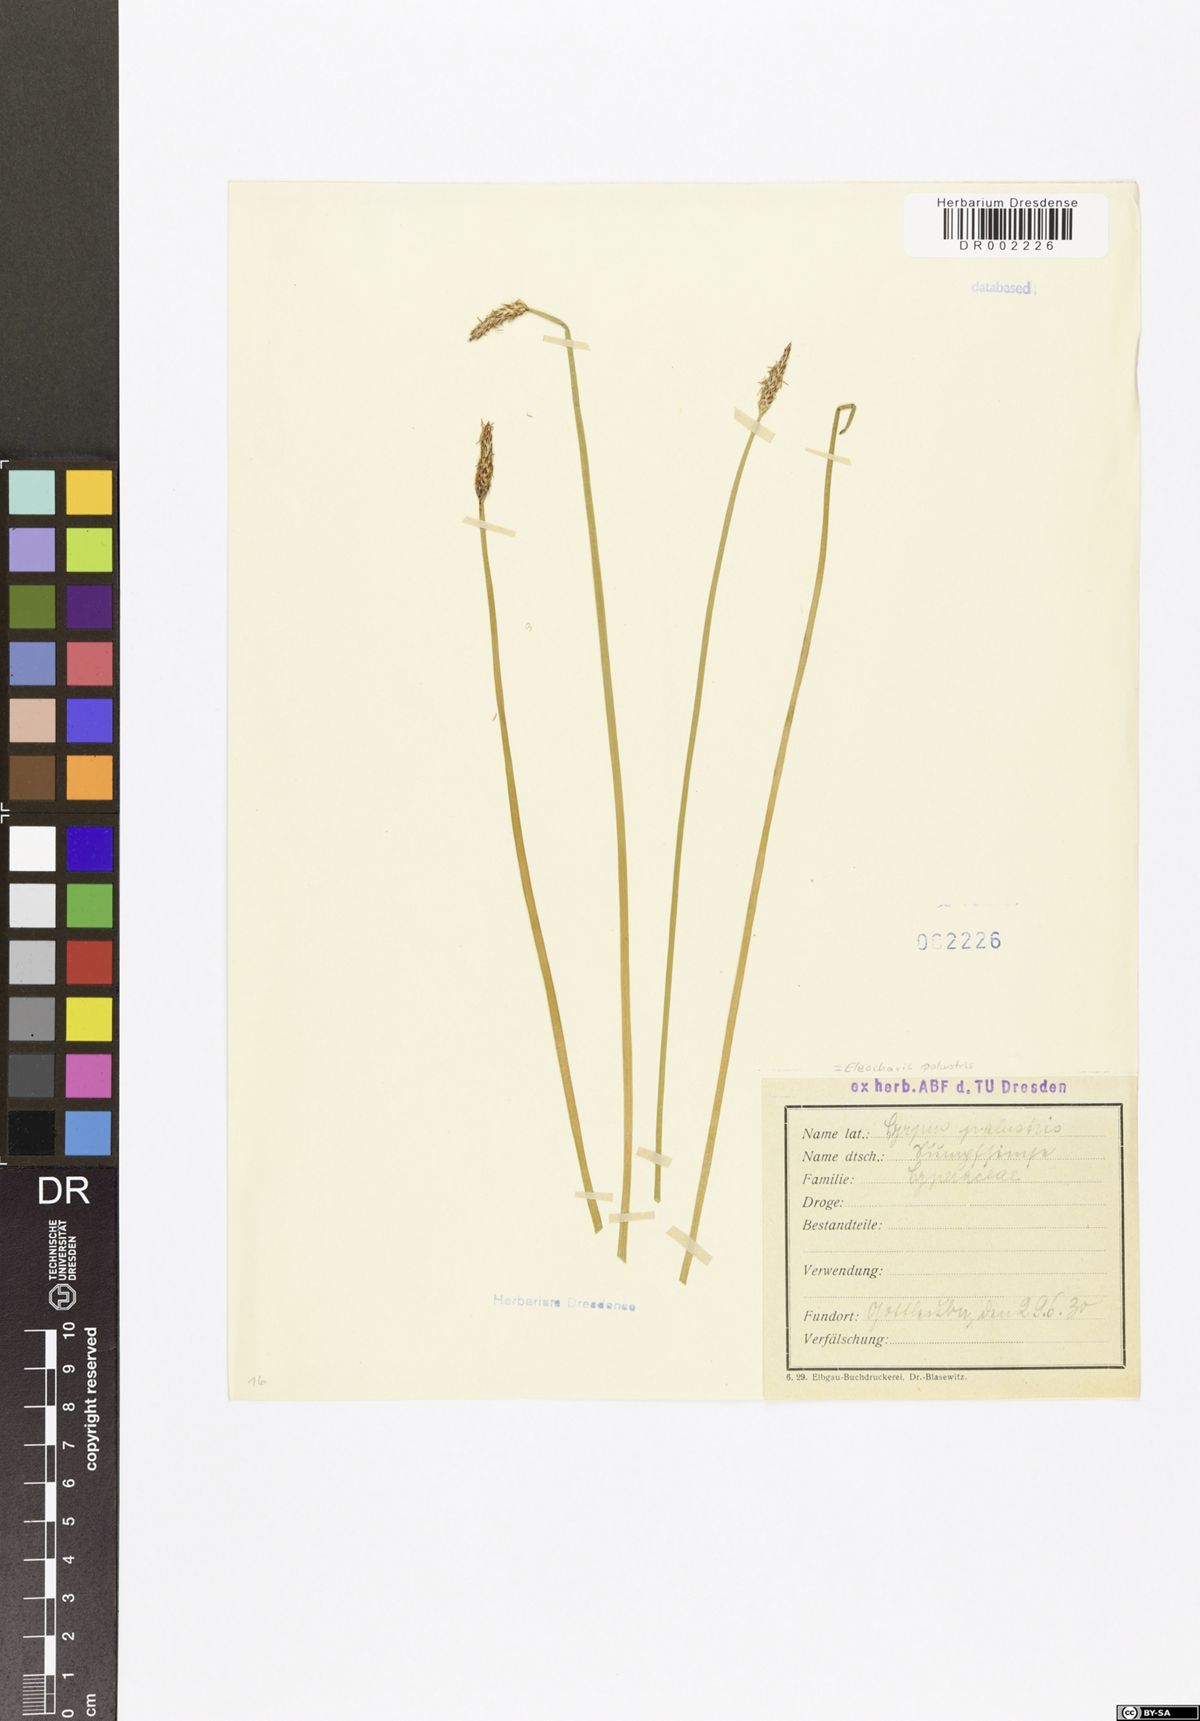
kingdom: Plantae
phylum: Tracheophyta
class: Liliopsida
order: Poales
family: Cyperaceae
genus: Eleocharis
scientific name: Eleocharis palustris
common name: Common spike-rush
